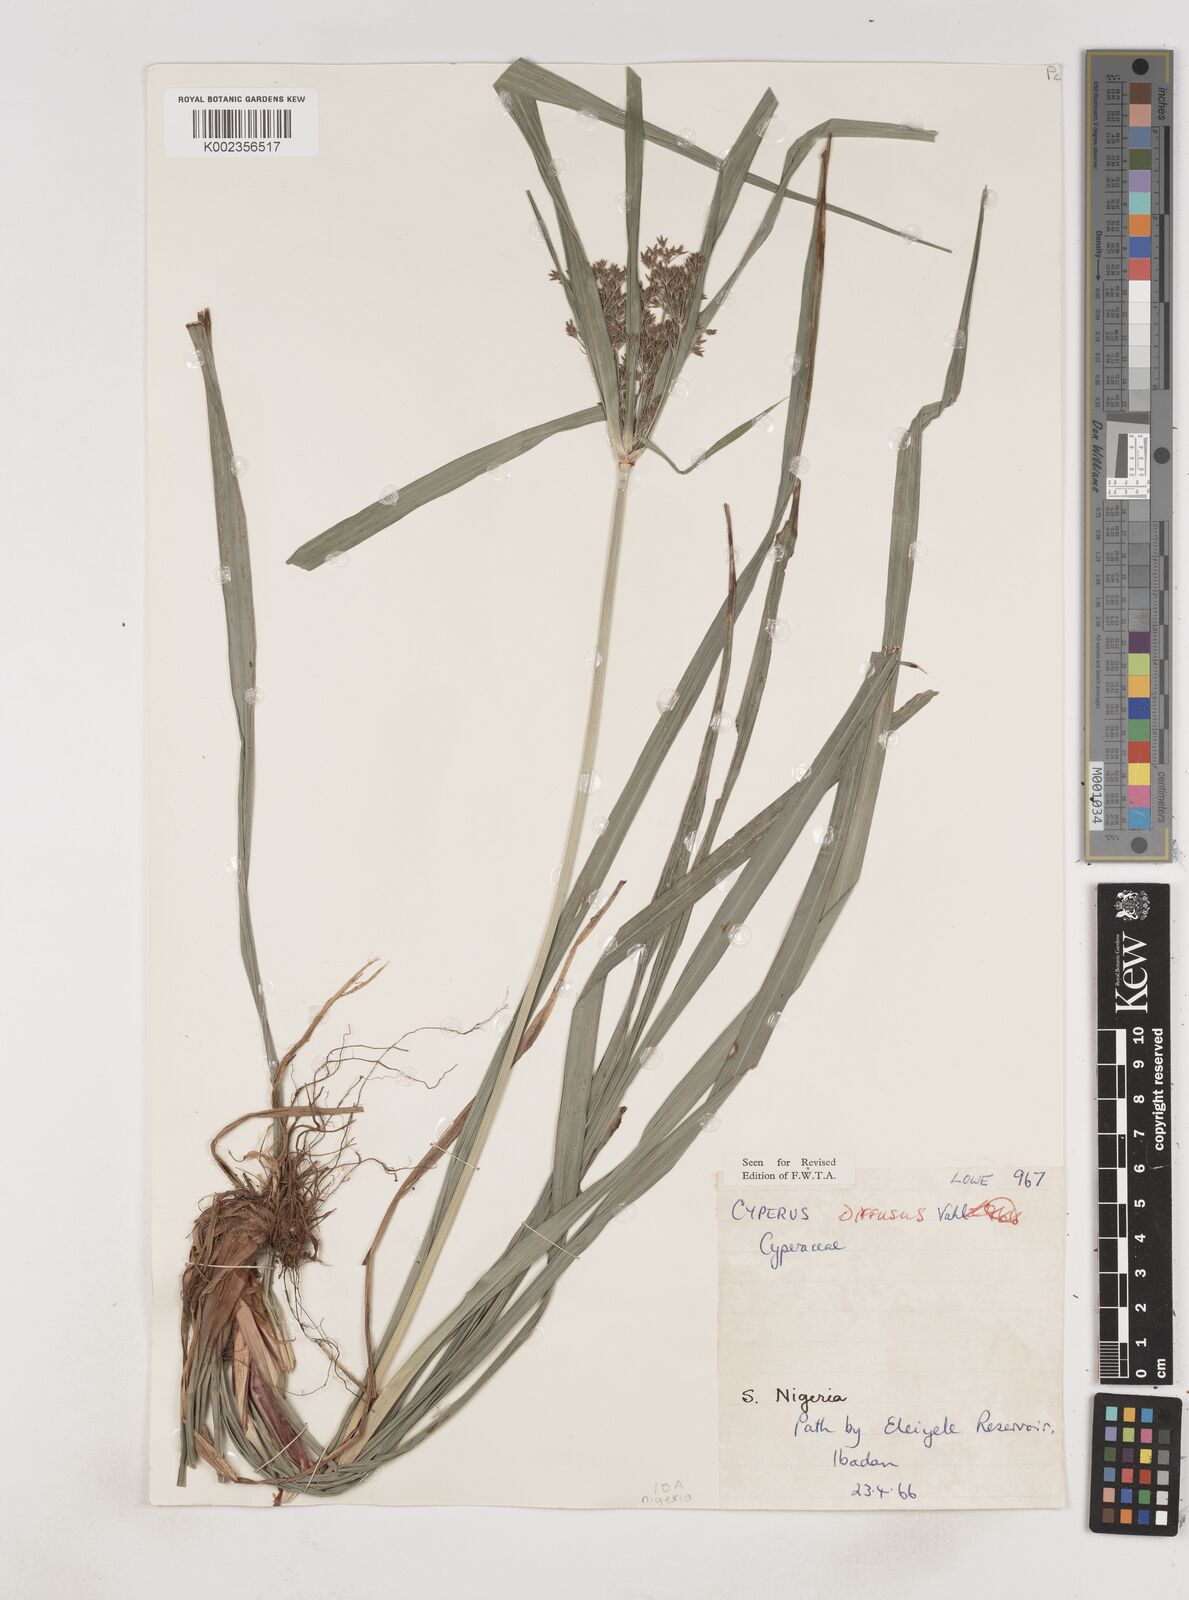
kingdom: Plantae
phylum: Tracheophyta
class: Liliopsida
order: Poales
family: Cyperaceae
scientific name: Cyperaceae
